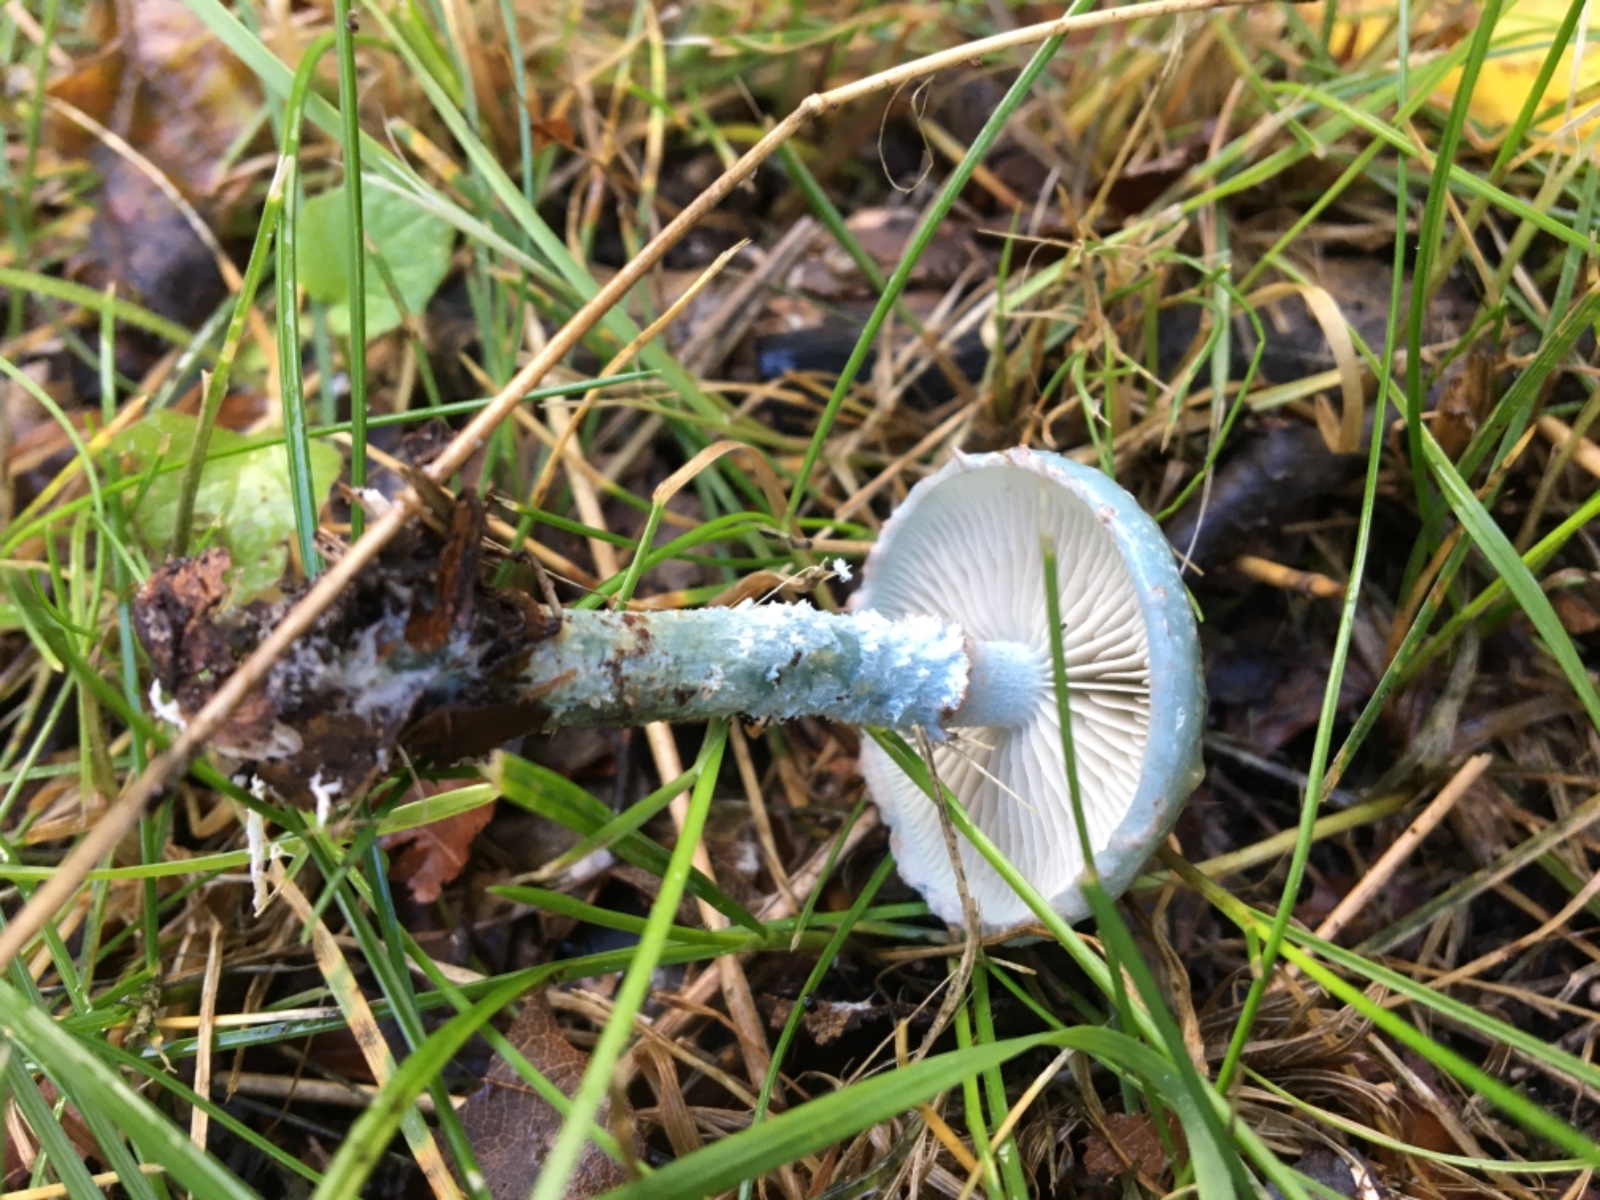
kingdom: Fungi
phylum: Basidiomycota
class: Agaricomycetes
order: Agaricales
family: Strophariaceae
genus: Stropharia
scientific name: Stropharia cyanea
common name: blågrøn bredblad
